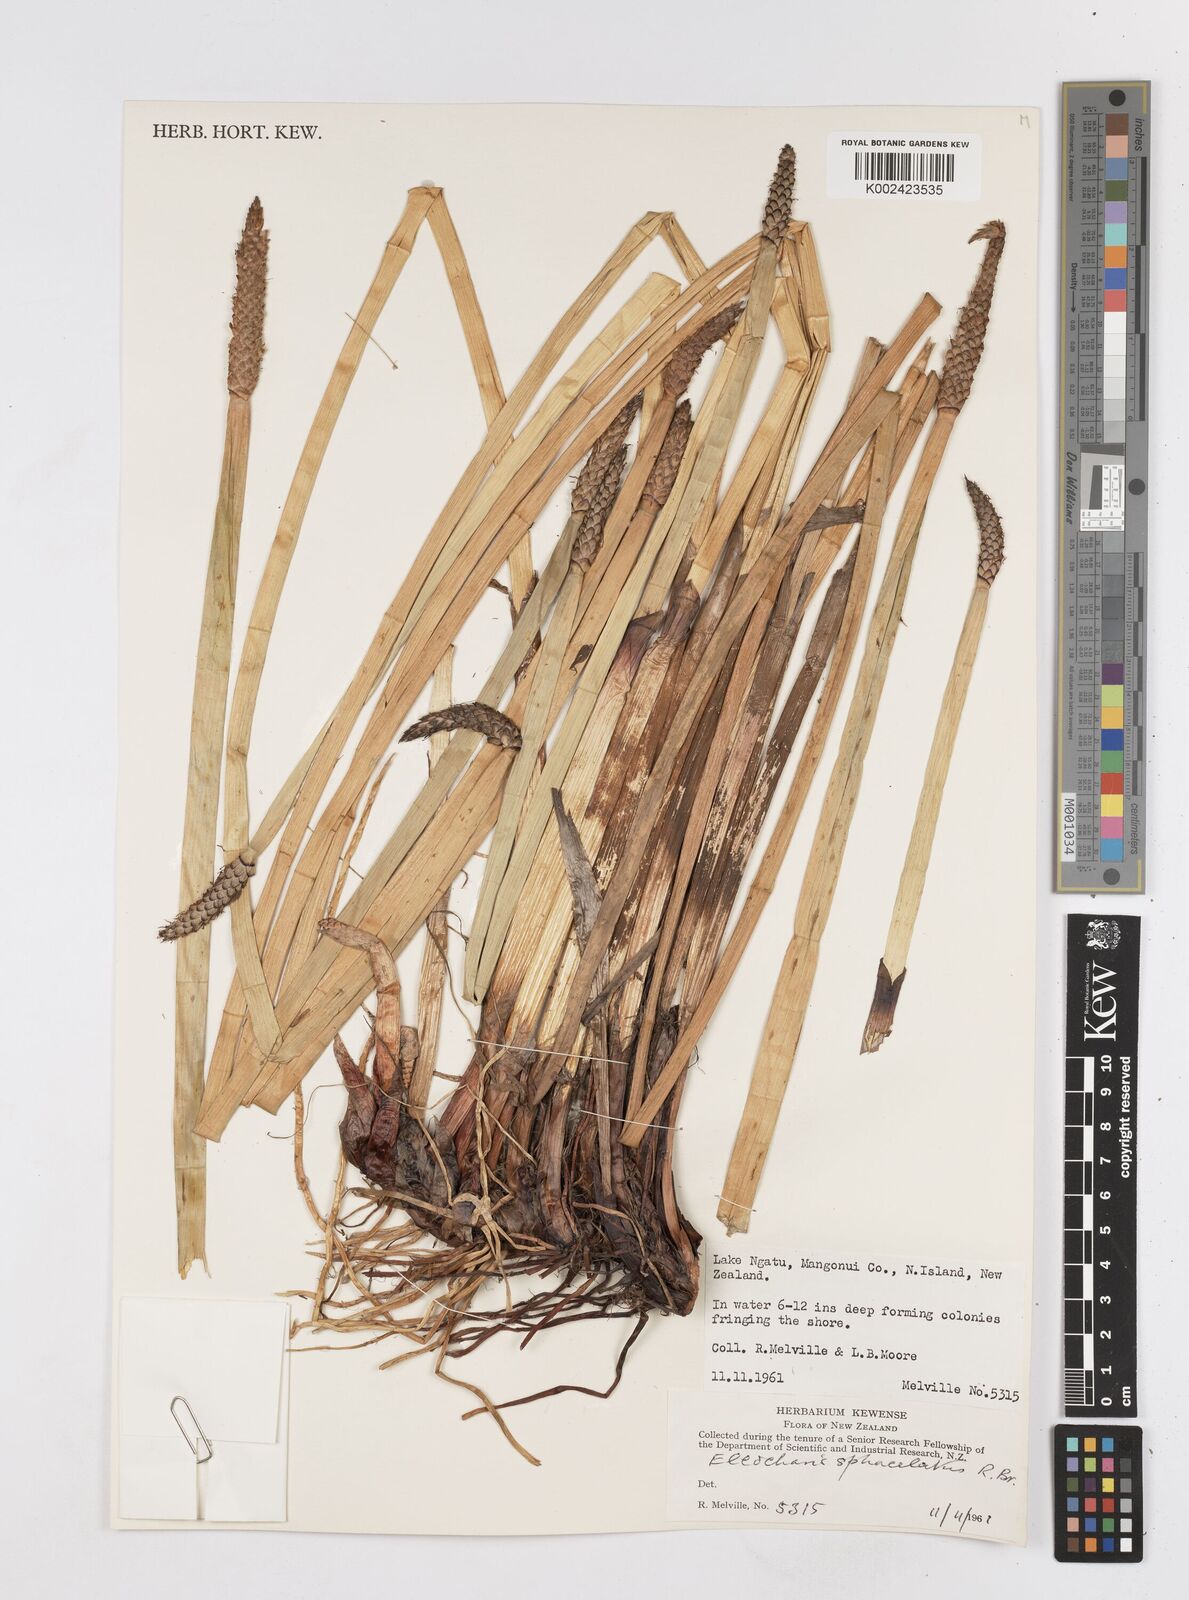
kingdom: Plantae
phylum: Tracheophyta
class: Liliopsida
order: Poales
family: Cyperaceae
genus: Eleocharis
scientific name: Eleocharis sphacelata
